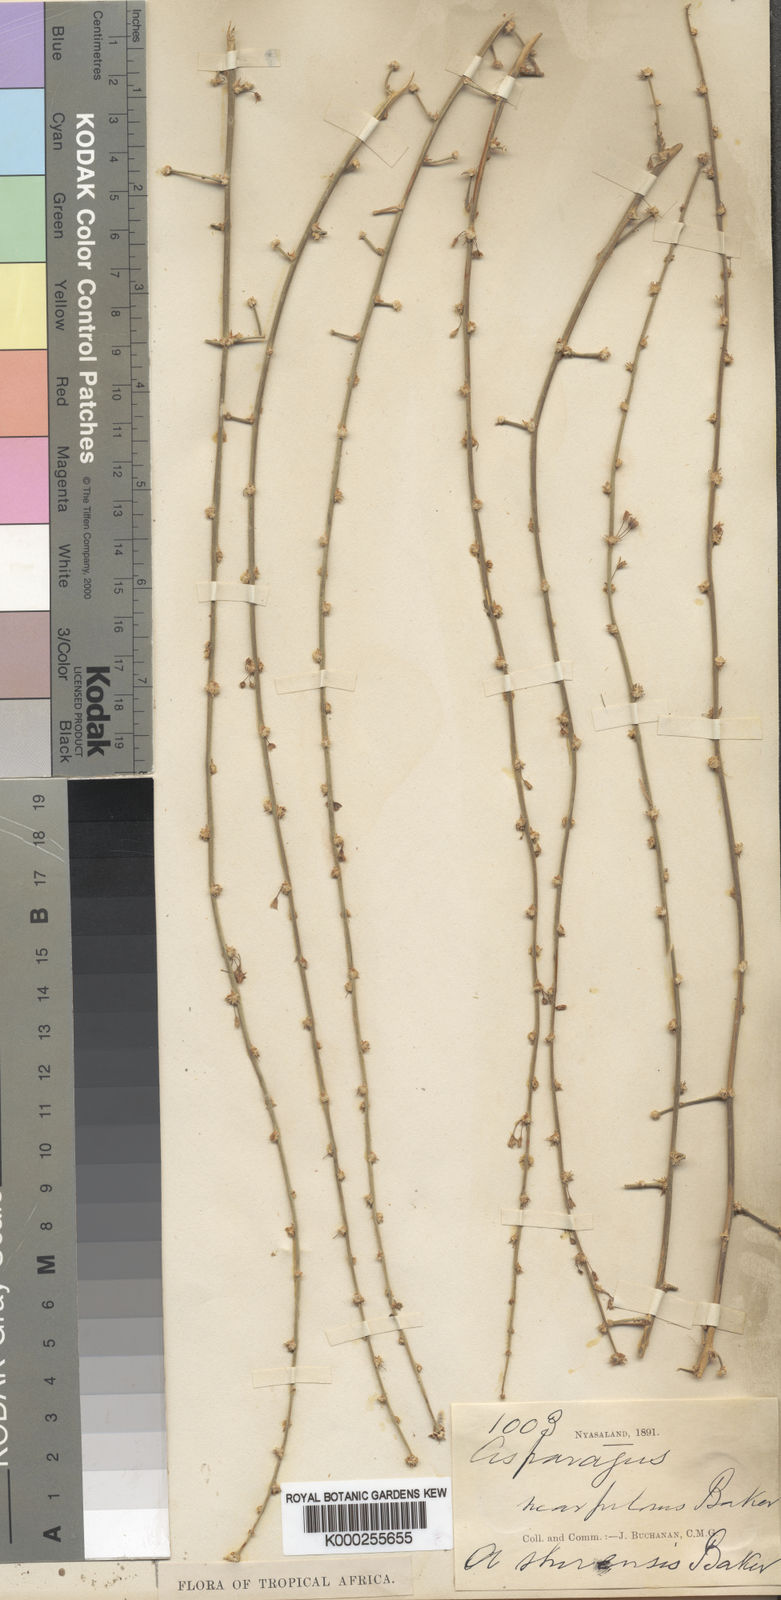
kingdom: Plantae
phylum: Tracheophyta
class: Liliopsida
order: Asparagales
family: Asparagaceae
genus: Asparagus
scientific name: Asparagus africanus
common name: Asparagus-fern
